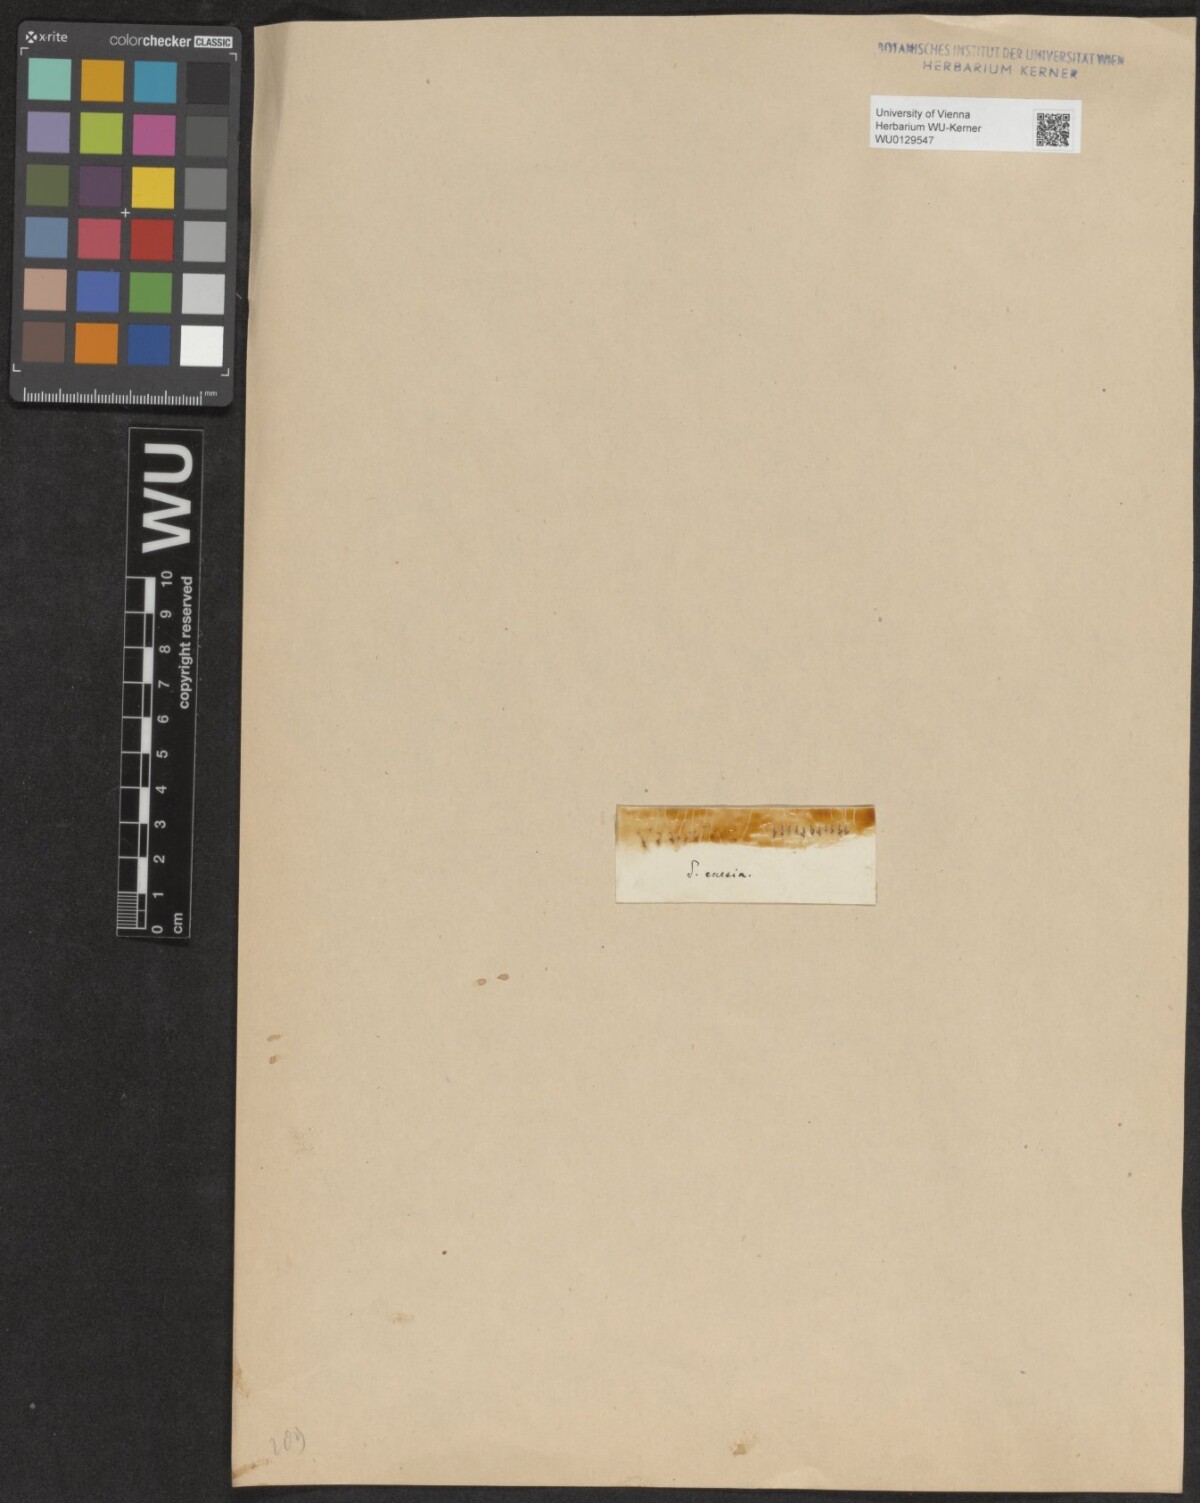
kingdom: Plantae
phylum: Tracheophyta
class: Magnoliopsida
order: Malpighiales
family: Salicaceae
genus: Salix
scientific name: Salix caesia
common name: Blue willow
